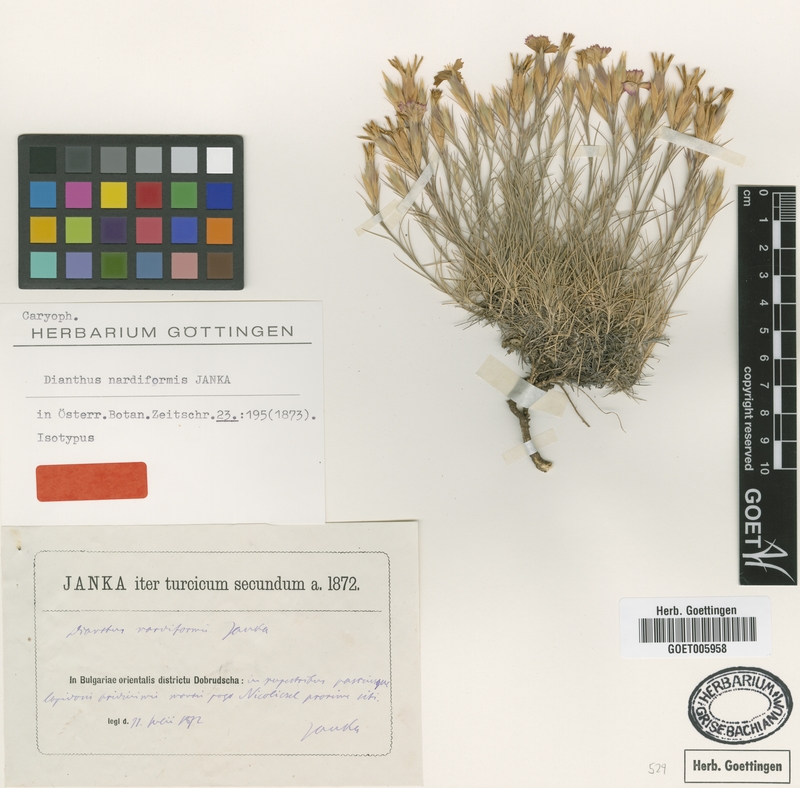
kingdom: Plantae
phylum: Tracheophyta
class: Magnoliopsida
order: Caryophyllales
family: Caryophyllaceae
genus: Dianthus
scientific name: Dianthus nardiformis
